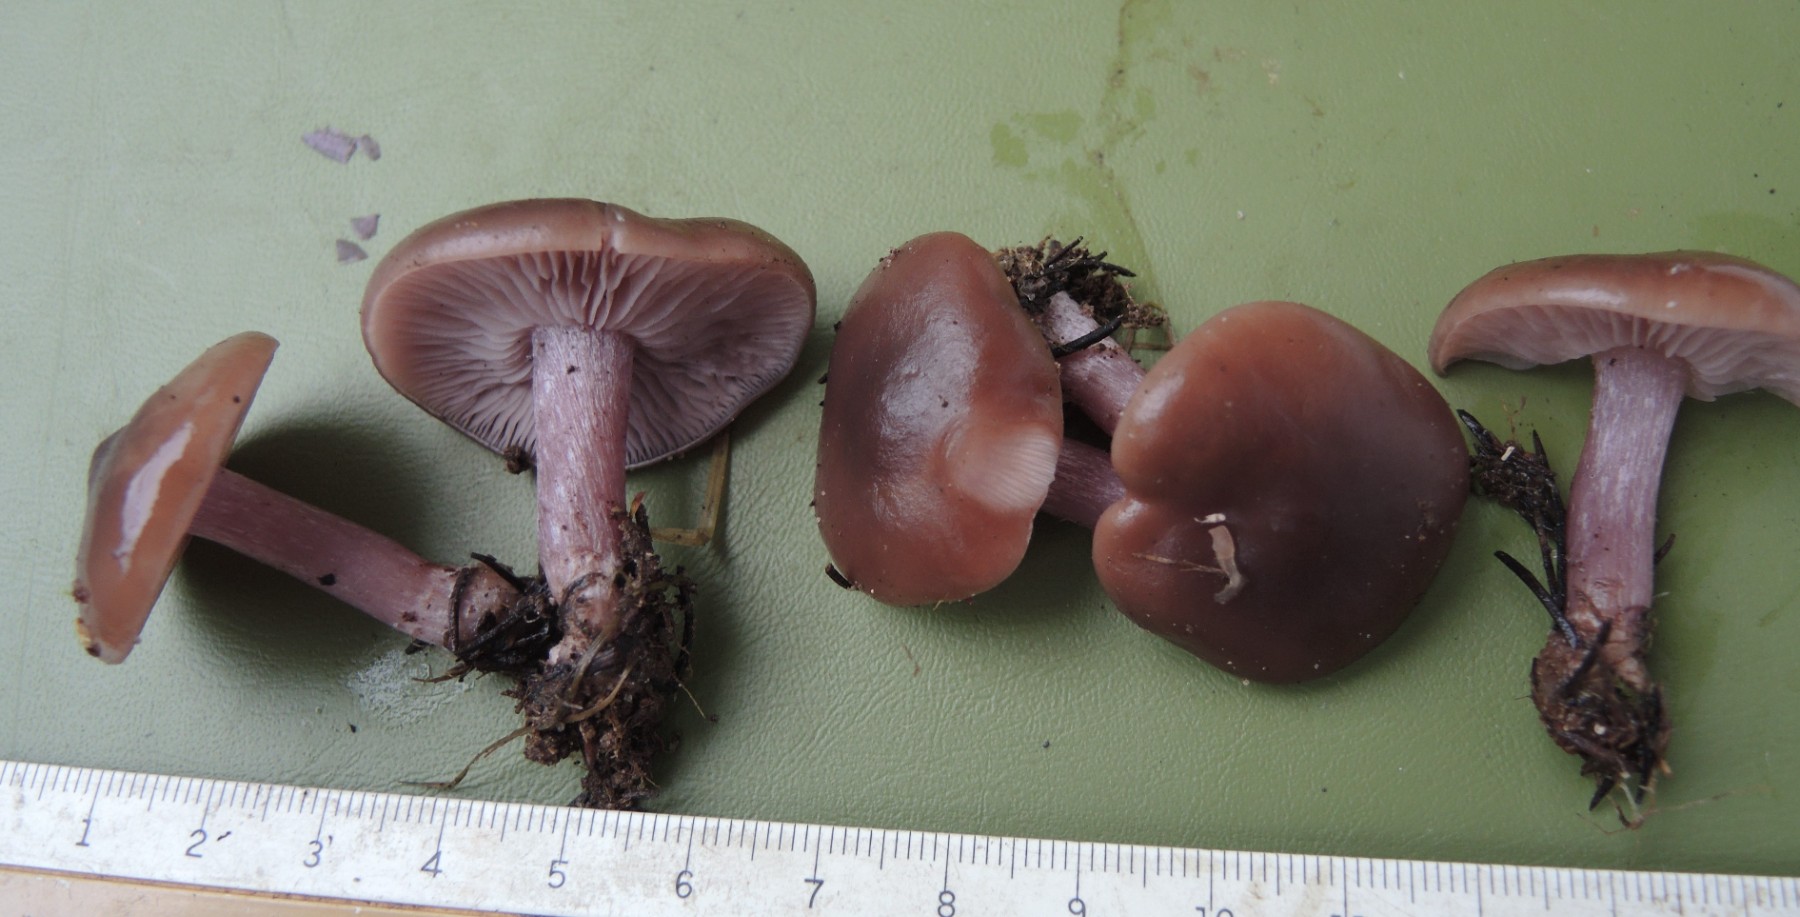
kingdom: Fungi
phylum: Basidiomycota
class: Agaricomycetes
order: Agaricales
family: Tricholomataceae
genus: Lepista
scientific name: Lepista lilacea
